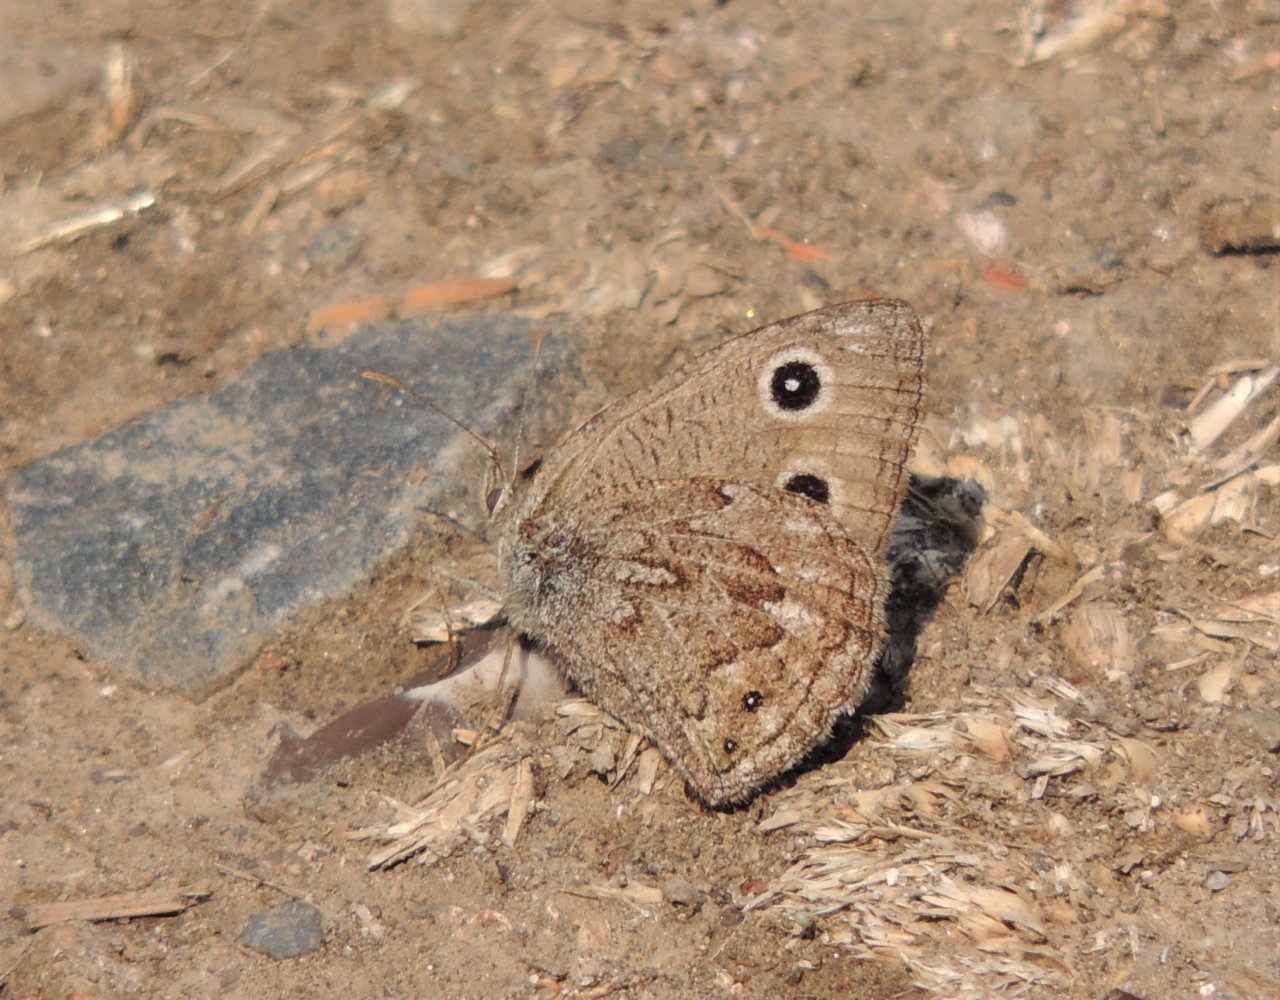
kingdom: Animalia
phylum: Arthropoda
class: Insecta
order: Lepidoptera
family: Nymphalidae
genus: Cercyonis
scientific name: Cercyonis oetus
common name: Small Wood-Nymph
